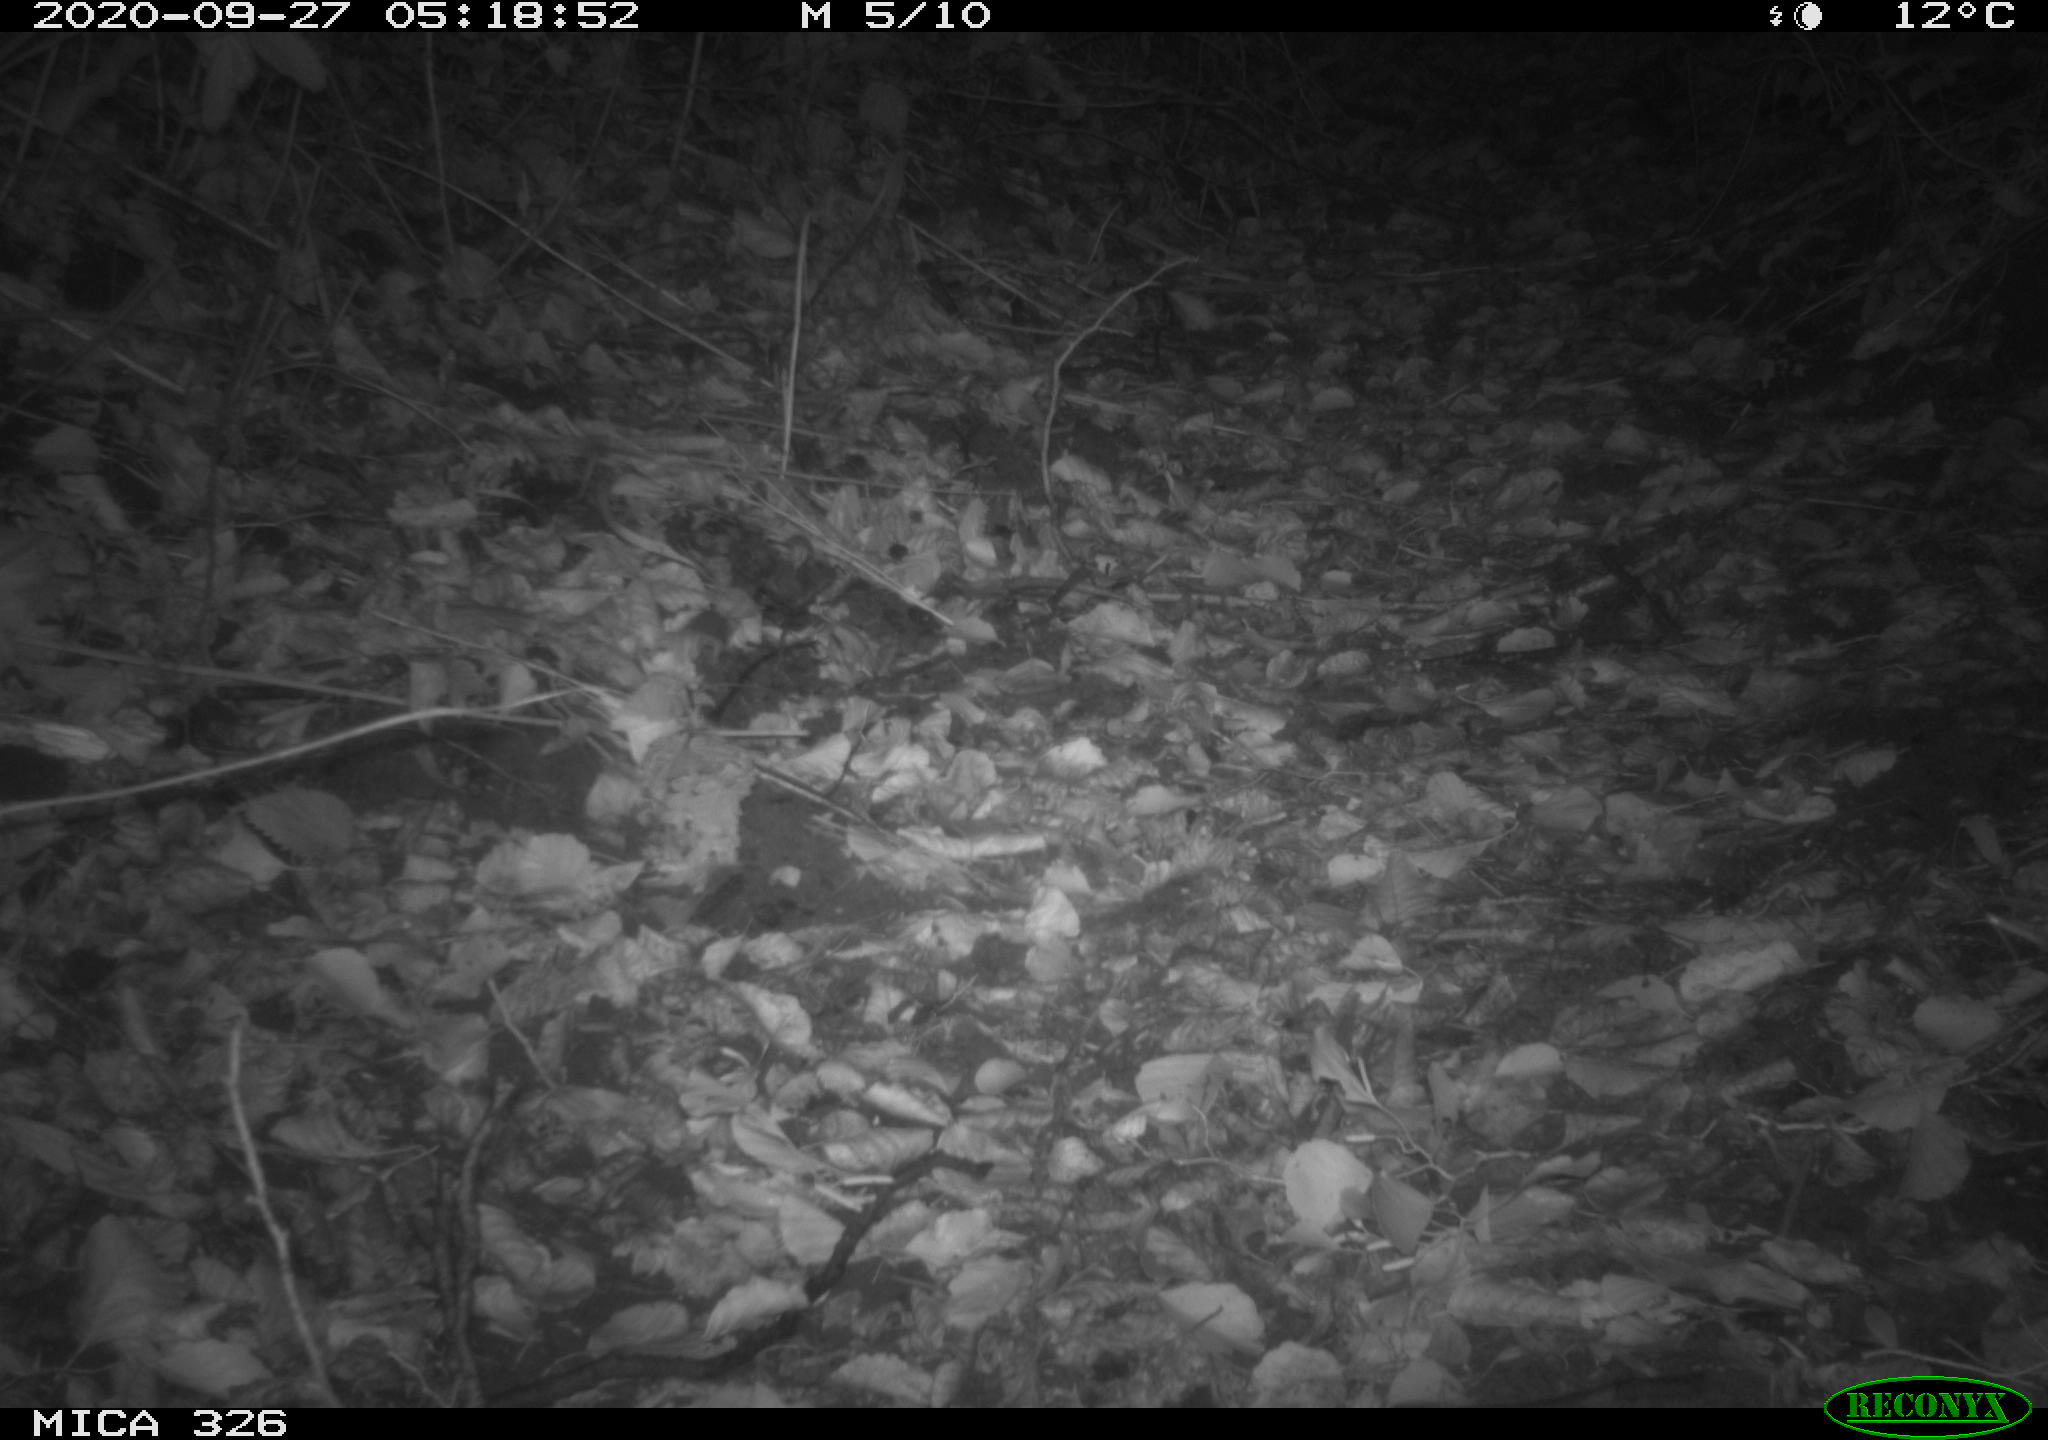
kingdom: Animalia
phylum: Chordata
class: Mammalia
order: Rodentia
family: Muridae
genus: Rattus
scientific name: Rattus norvegicus
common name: Brown rat
